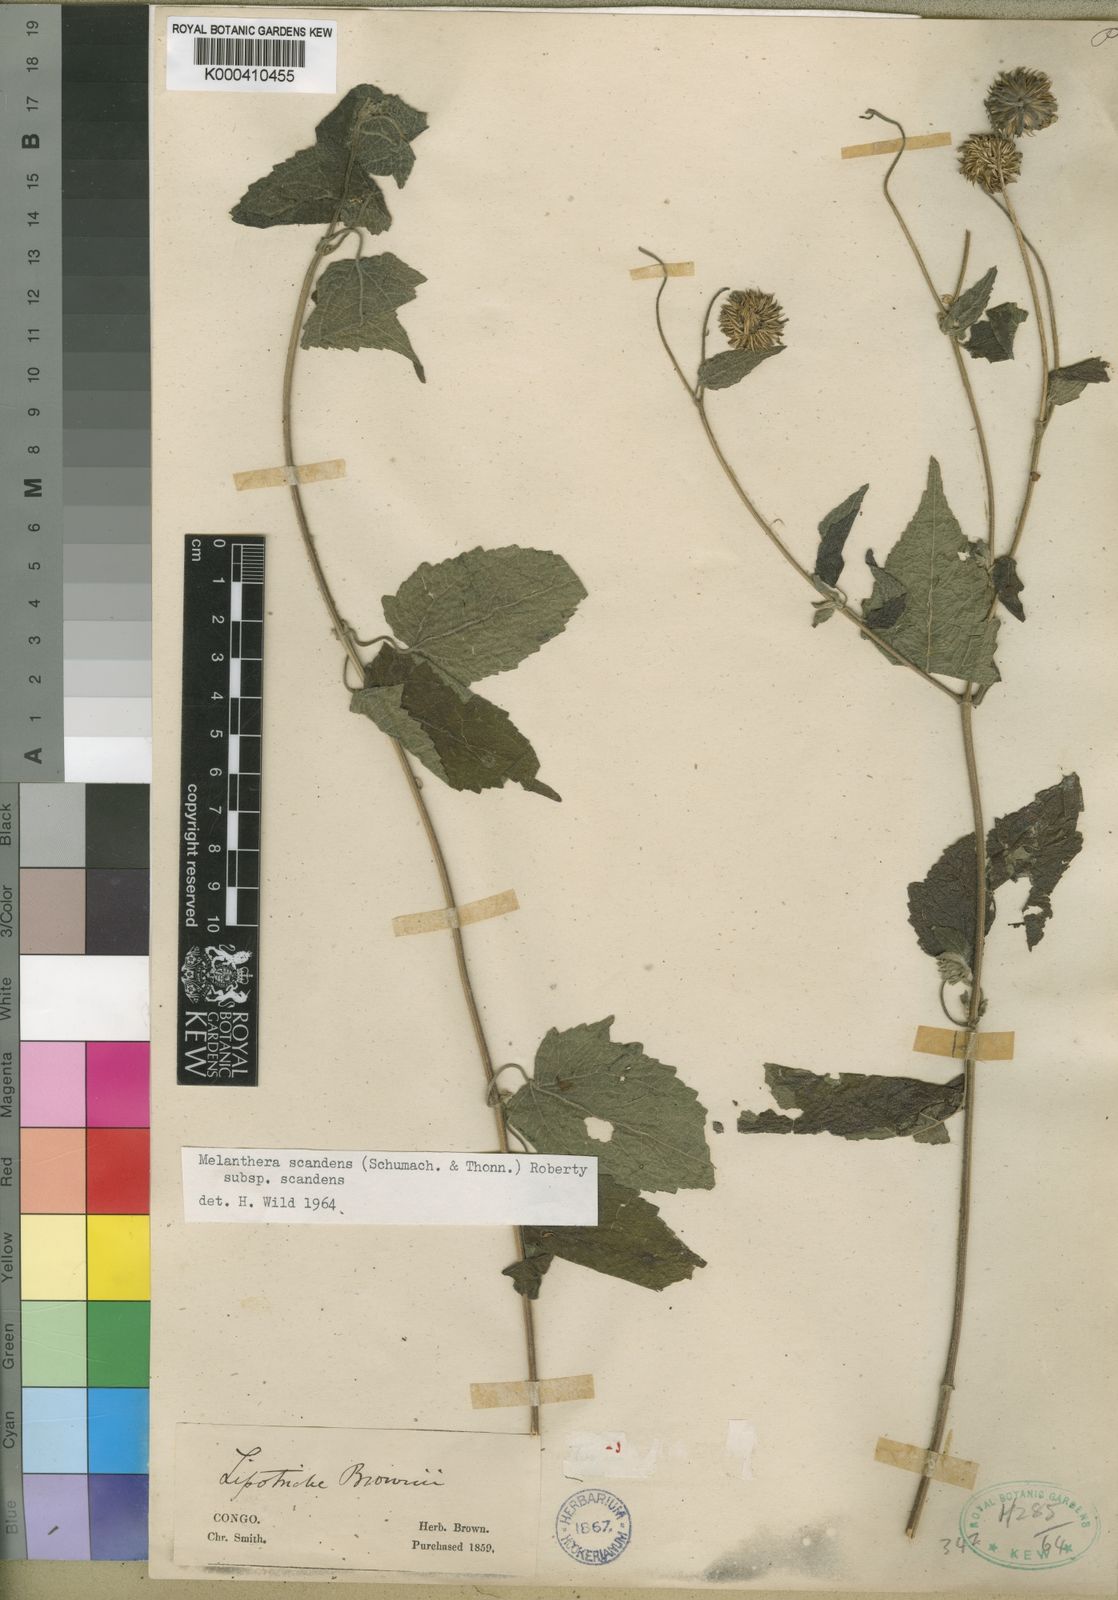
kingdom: Plantae
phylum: Tracheophyta
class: Magnoliopsida
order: Asterales
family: Asteraceae
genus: Melanthera
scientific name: Melanthera
